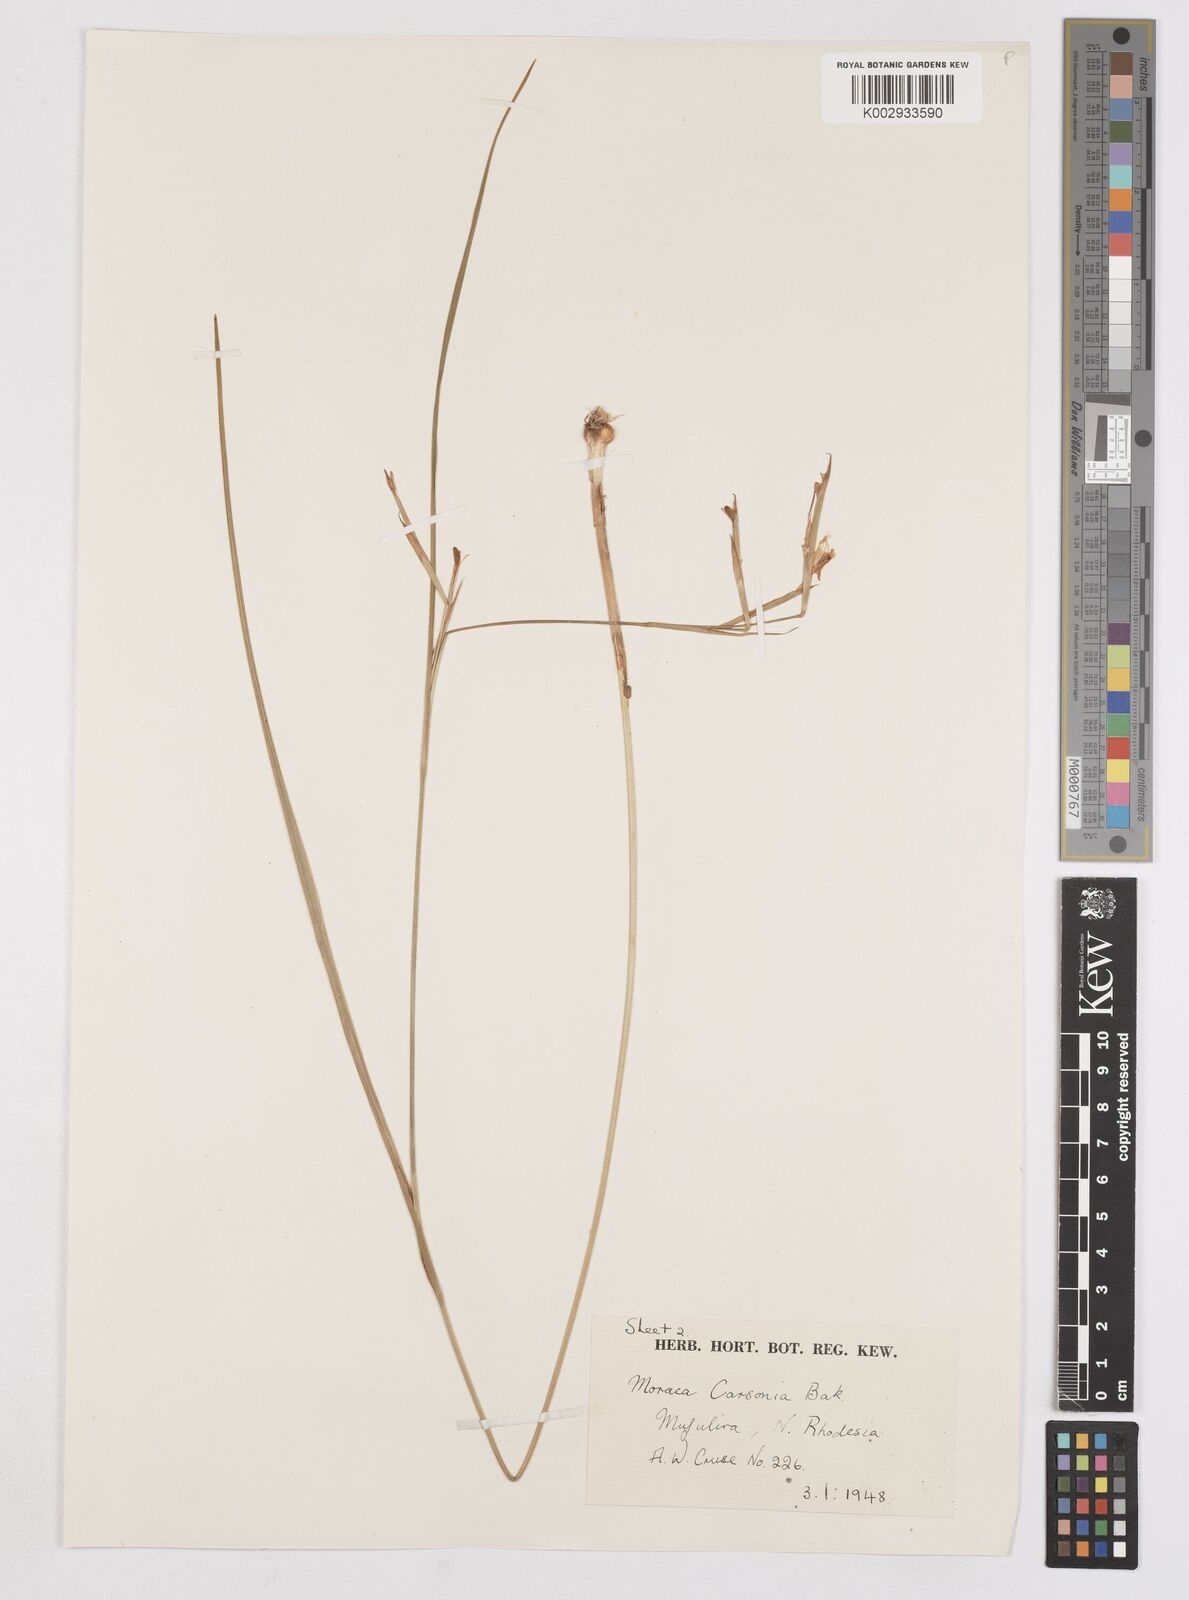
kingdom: Plantae
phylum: Tracheophyta
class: Liliopsida
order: Asparagales
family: Iridaceae
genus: Moraea
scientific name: Moraea carsonii
